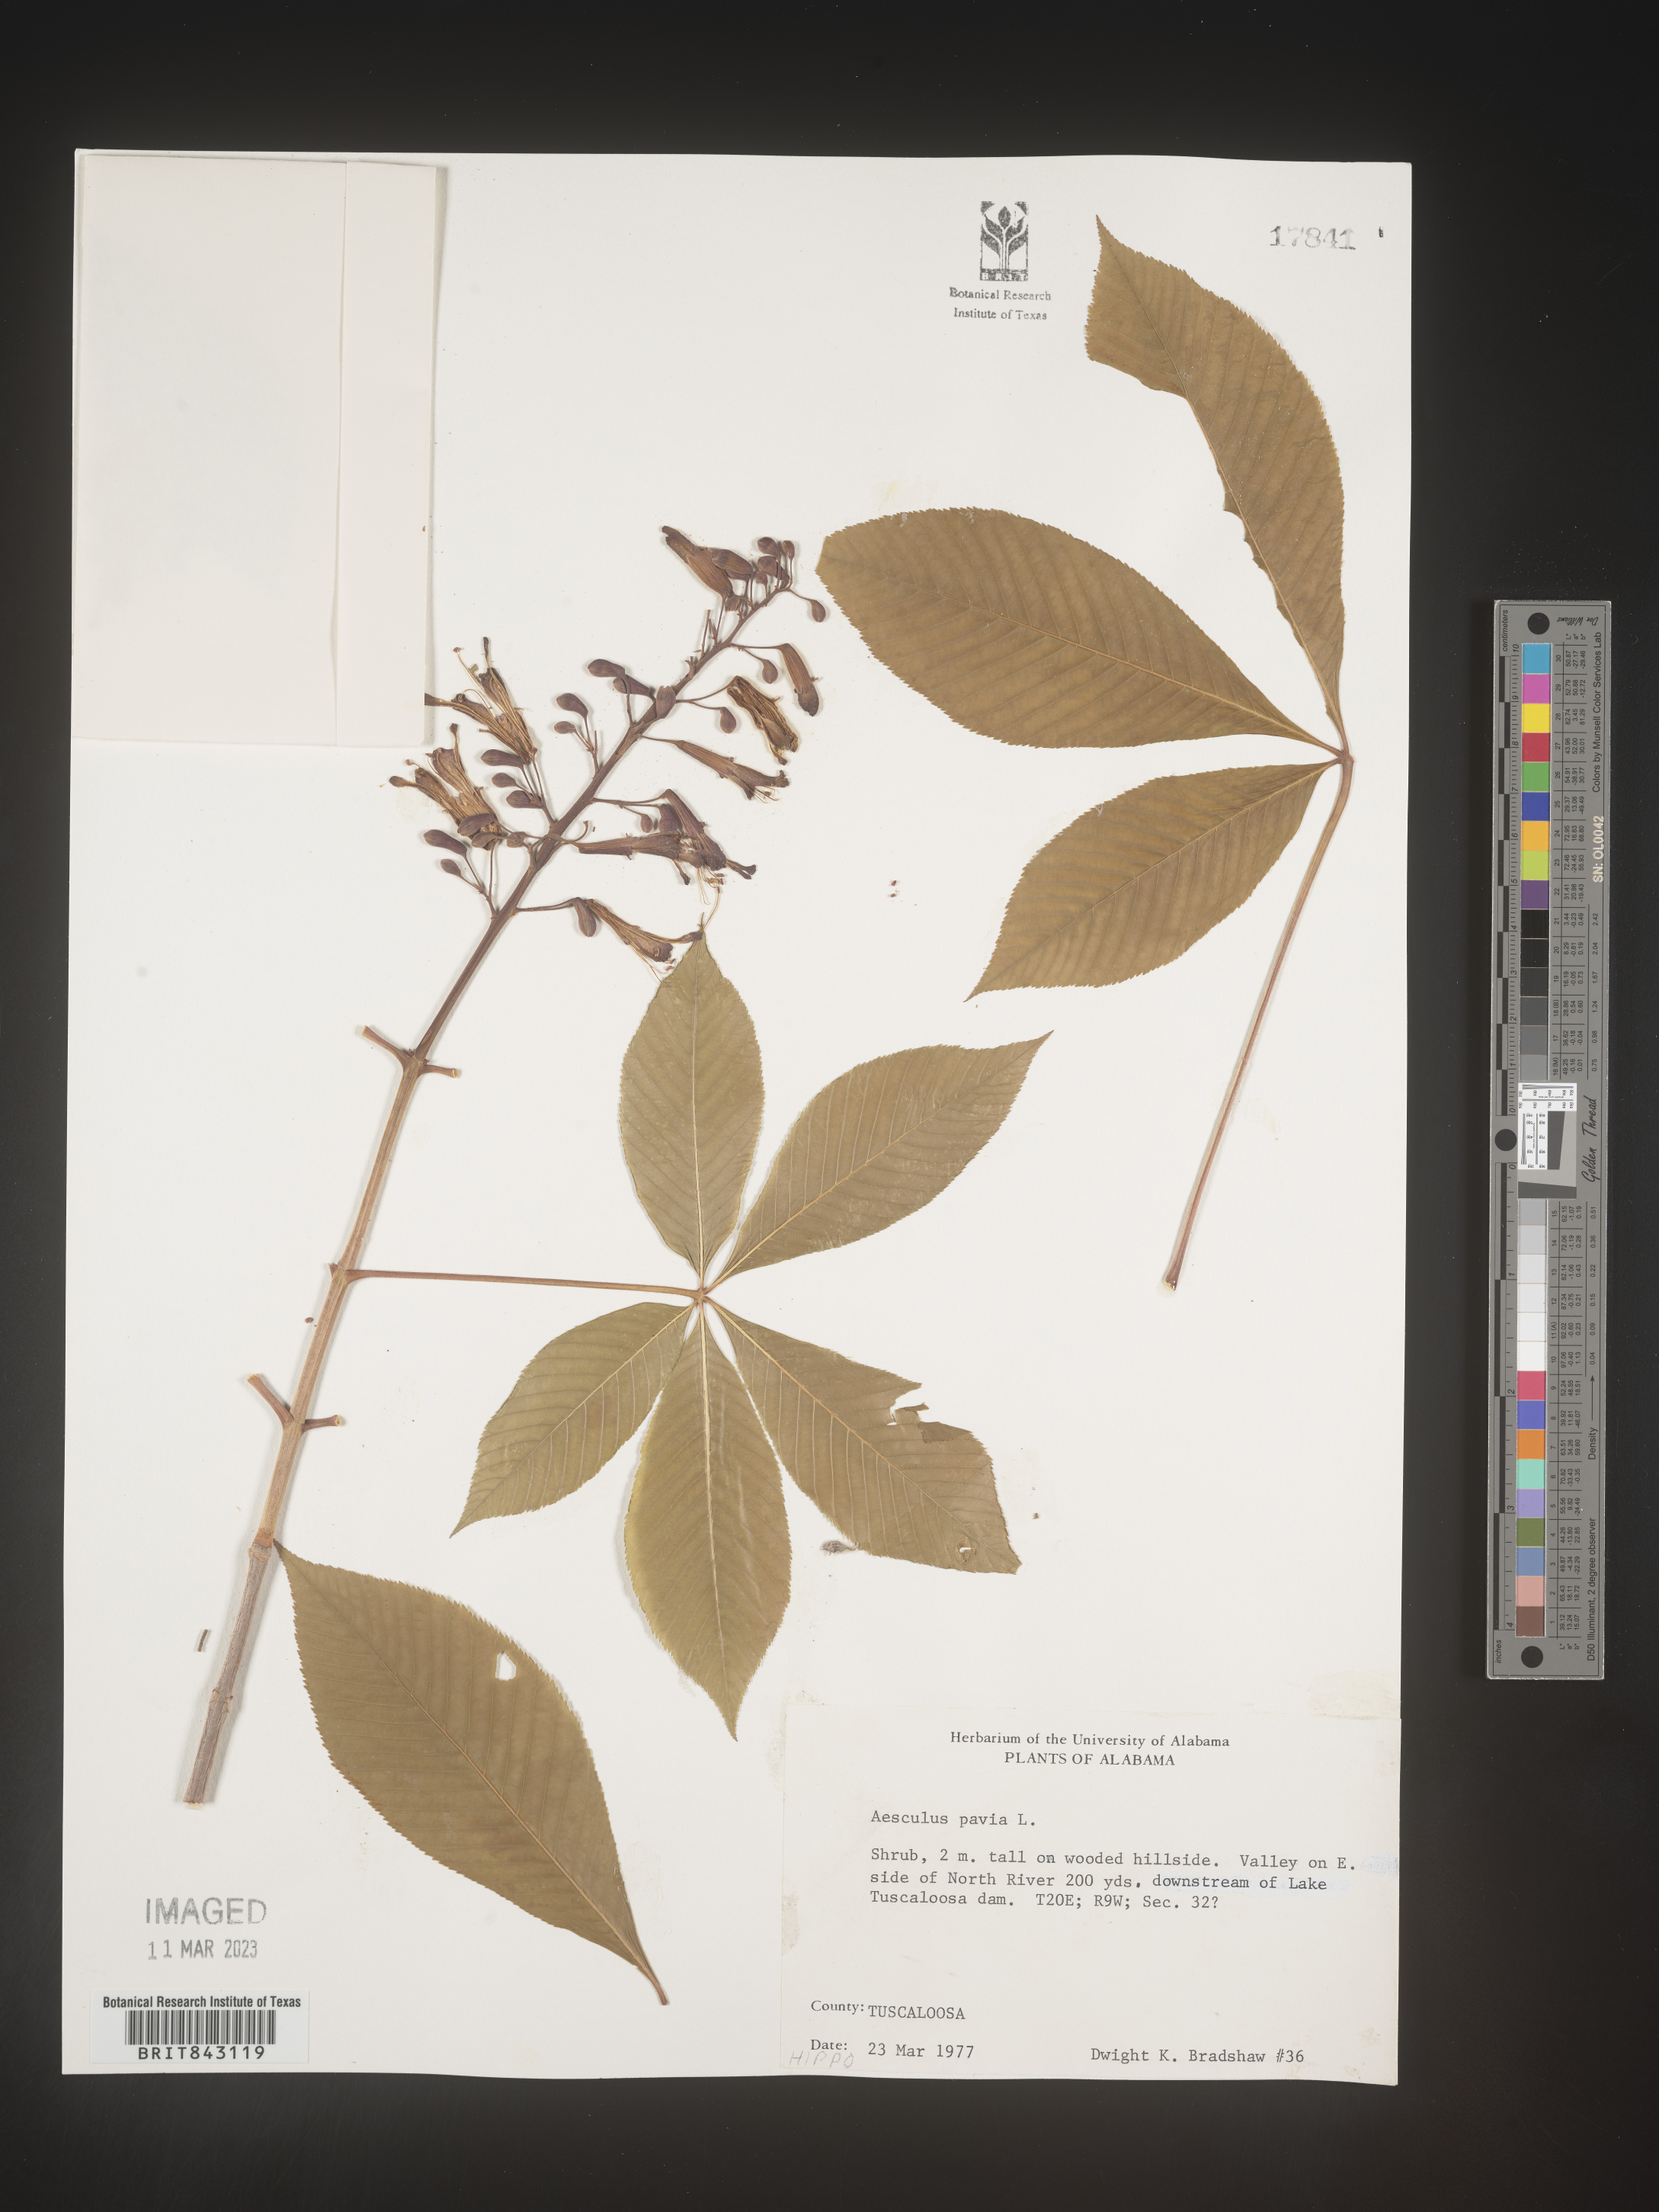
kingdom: Plantae
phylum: Tracheophyta
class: Magnoliopsida
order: Sapindales
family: Sapindaceae
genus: Aesculus
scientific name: Aesculus pavia
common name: Red buckeye
